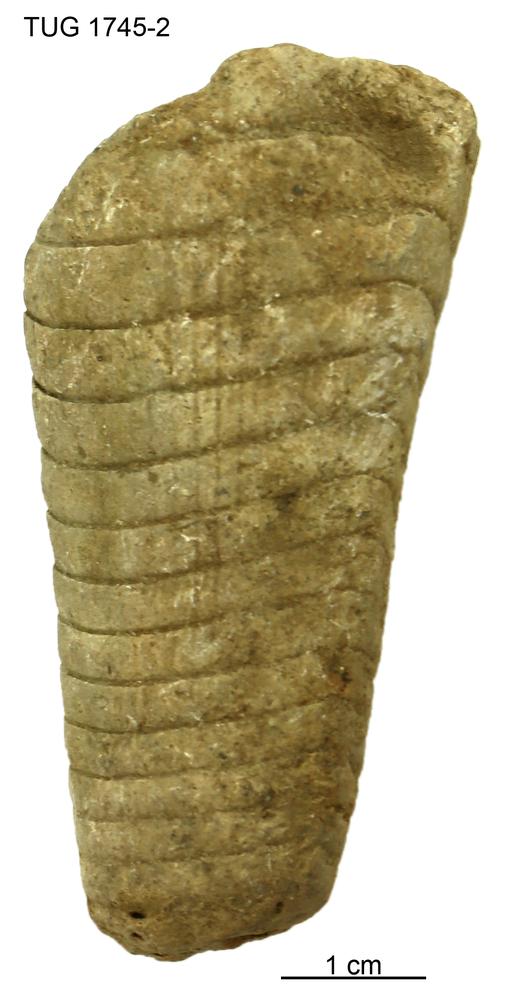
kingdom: Animalia
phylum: Mollusca
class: Cephalopoda
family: Oncoceratidae
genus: Beloitoceras
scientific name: Beloitoceras
